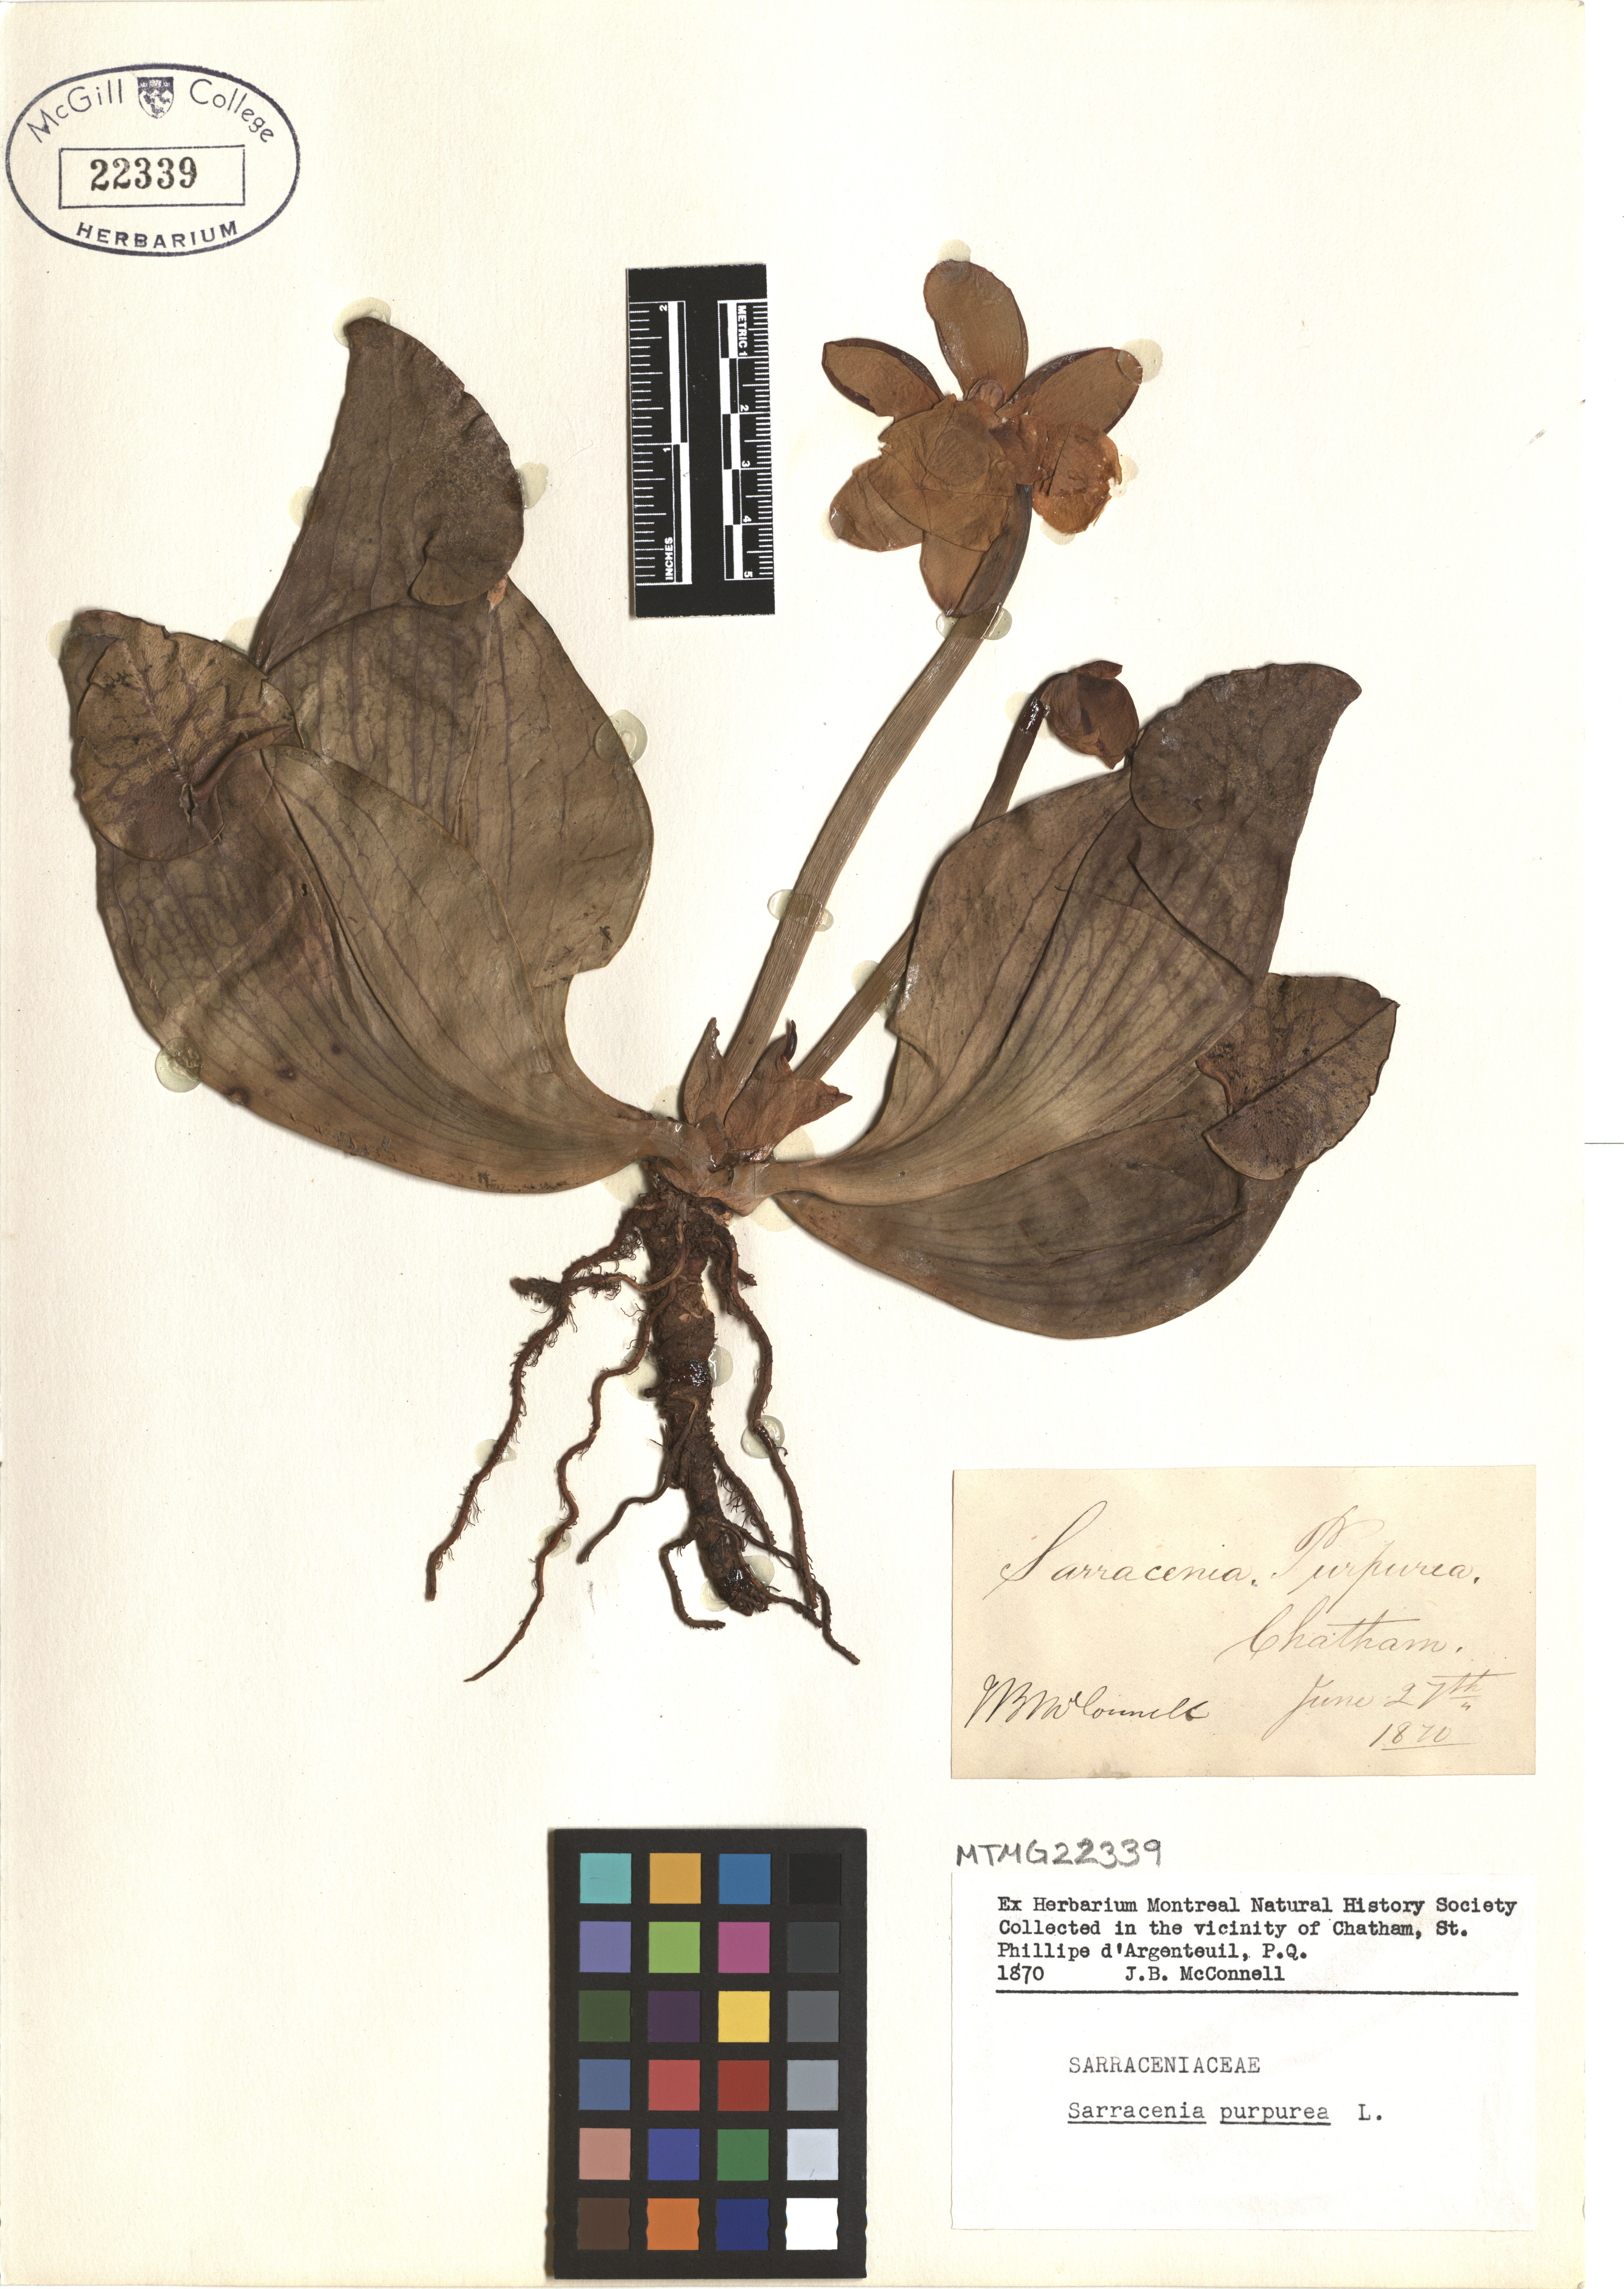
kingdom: Plantae
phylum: Tracheophyta
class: Magnoliopsida
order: Ericales
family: Sarraceniaceae
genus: Sarracenia
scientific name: Sarracenia purpurea
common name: Pitcherplant
